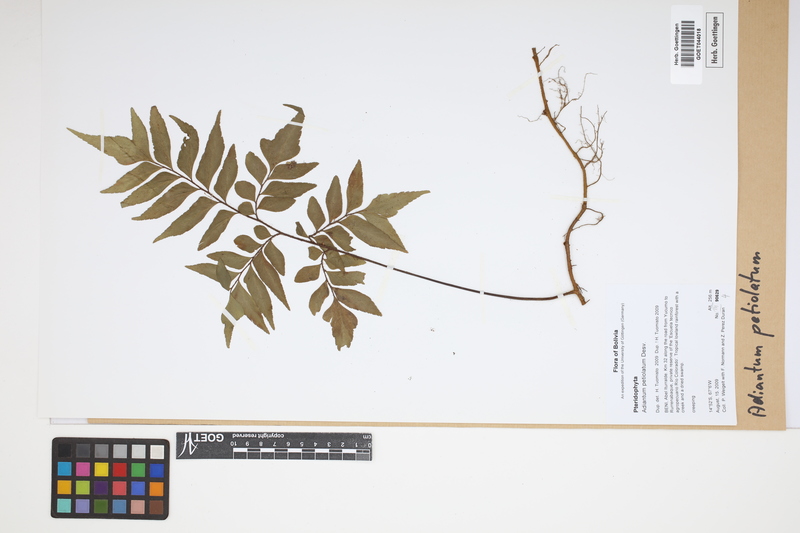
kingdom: Plantae
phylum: Tracheophyta
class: Polypodiopsida
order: Polypodiales
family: Pteridaceae
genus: Adiantum
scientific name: Adiantum petiolatum
